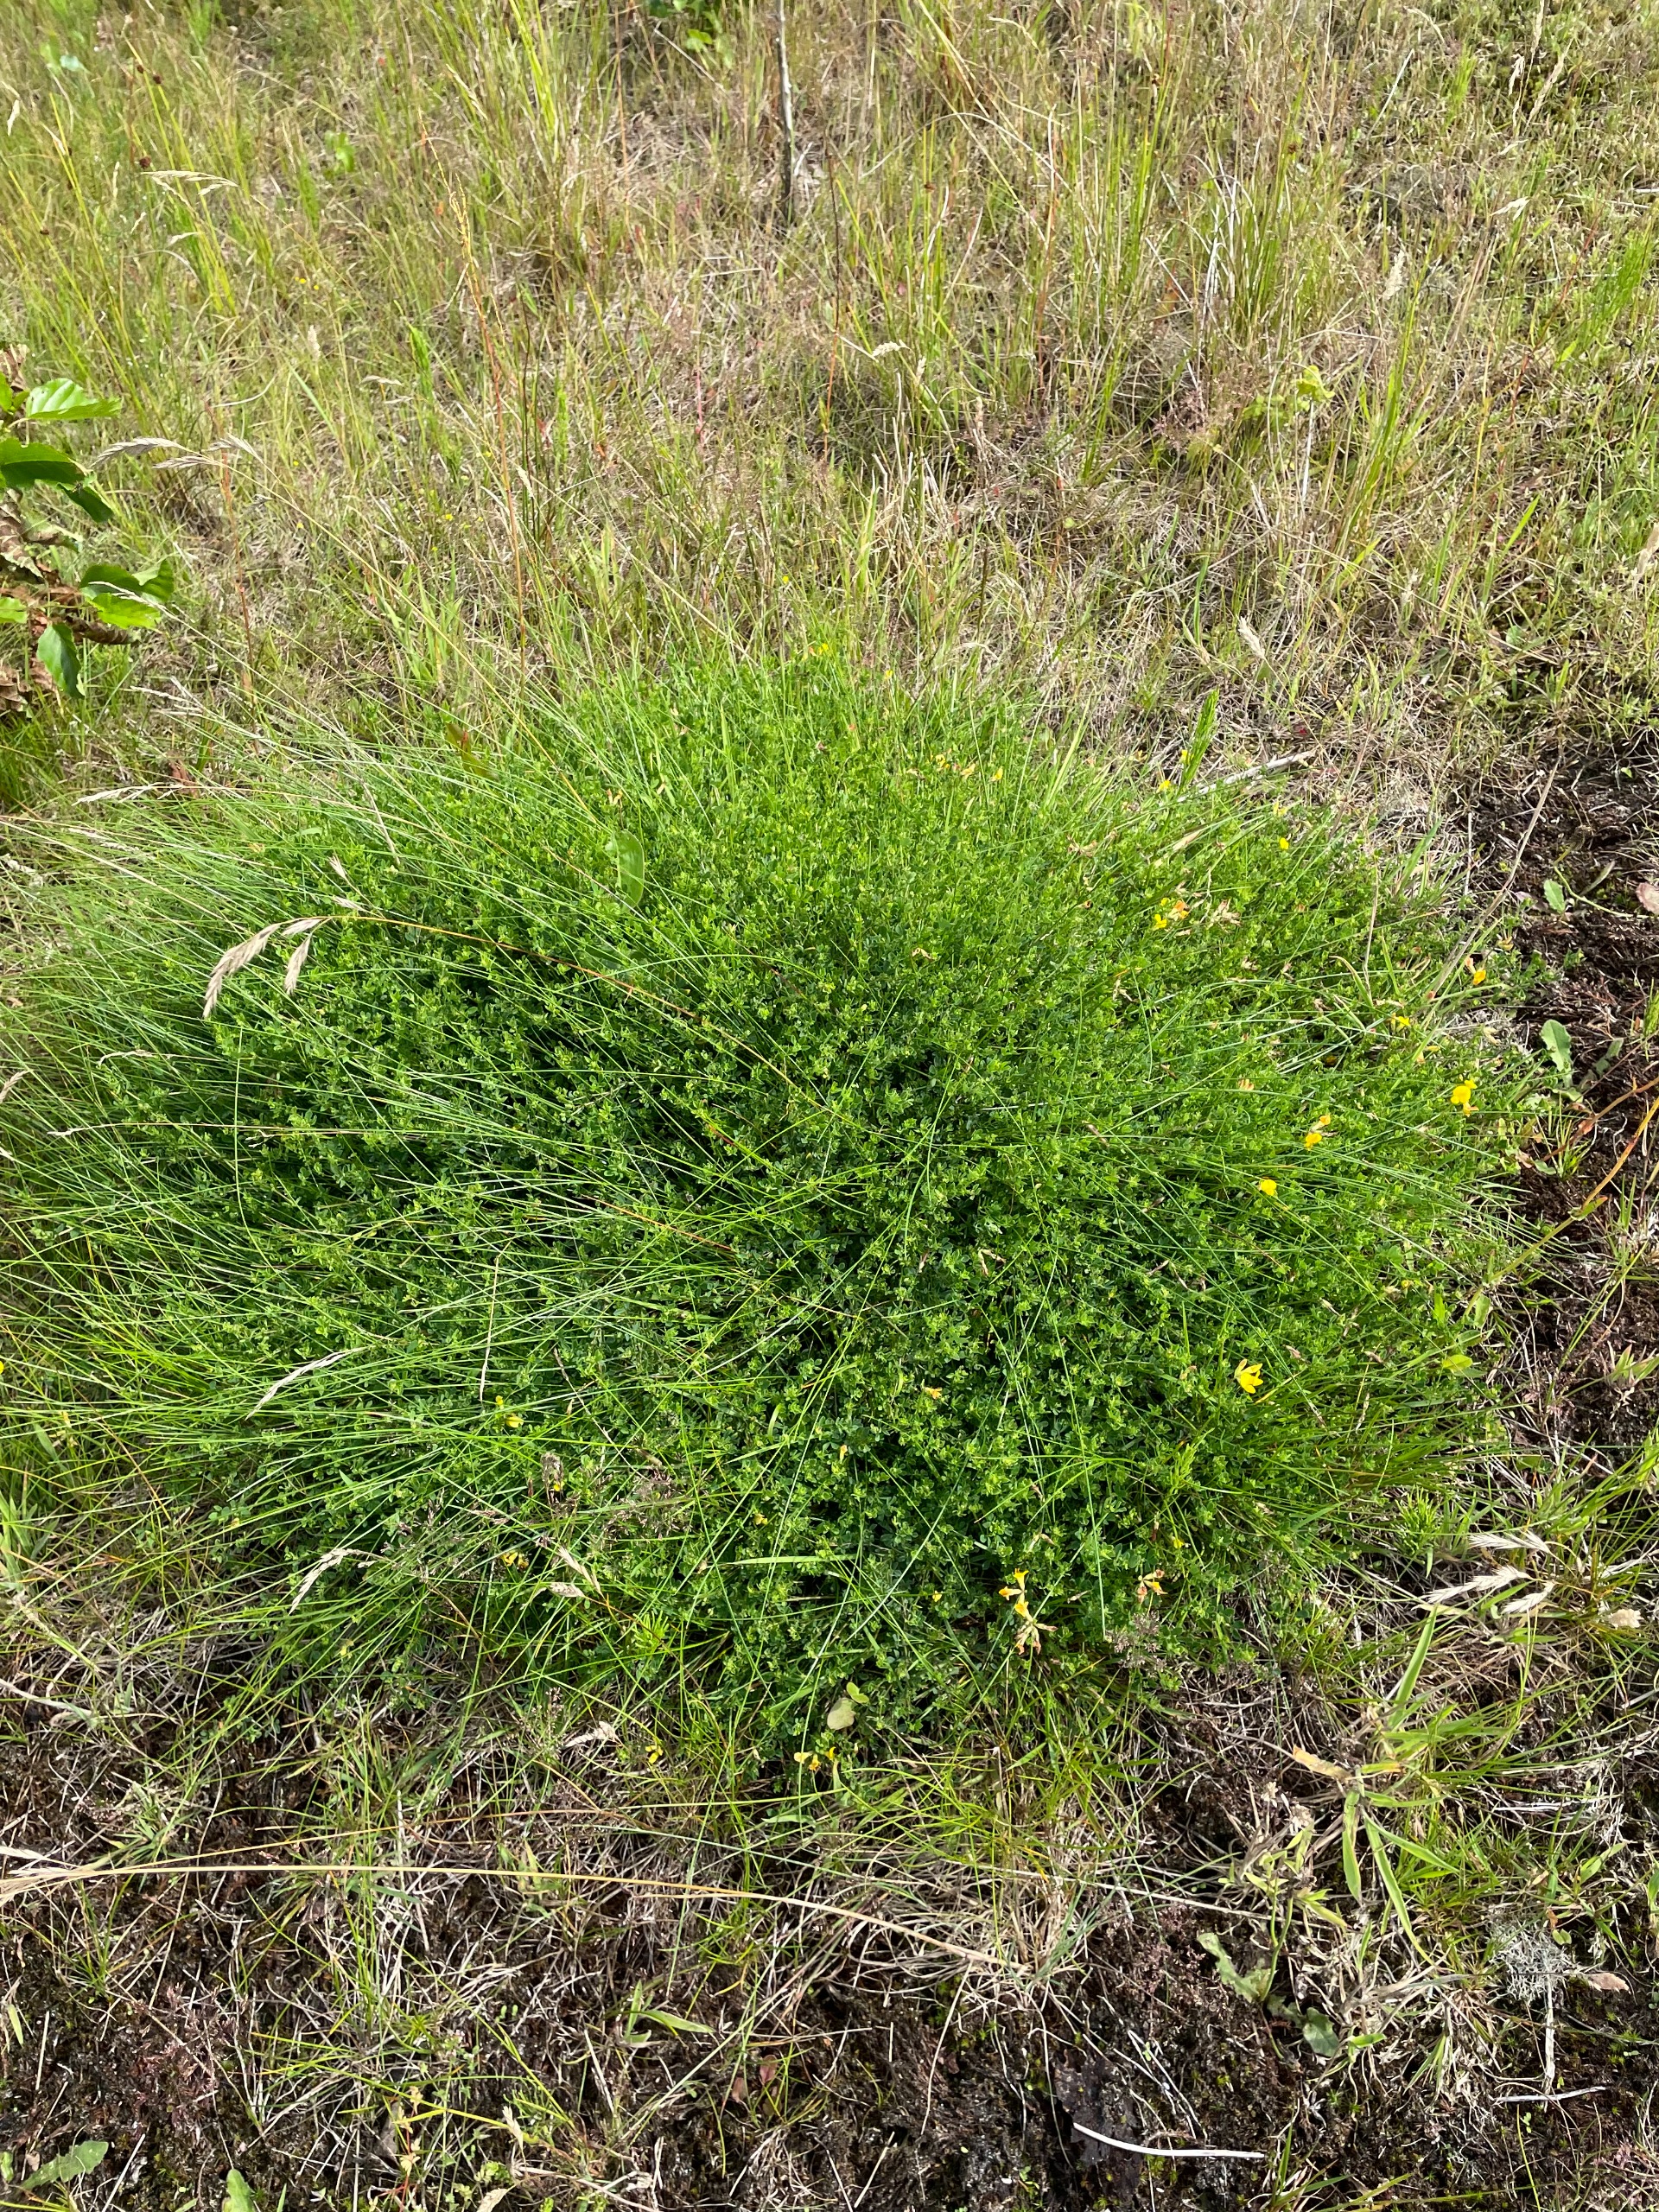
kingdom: Plantae
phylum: Tracheophyta
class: Magnoliopsida
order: Fabales
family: Fabaceae
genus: Lotus
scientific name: Lotus corniculatus
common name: Almindelig kællingetand
